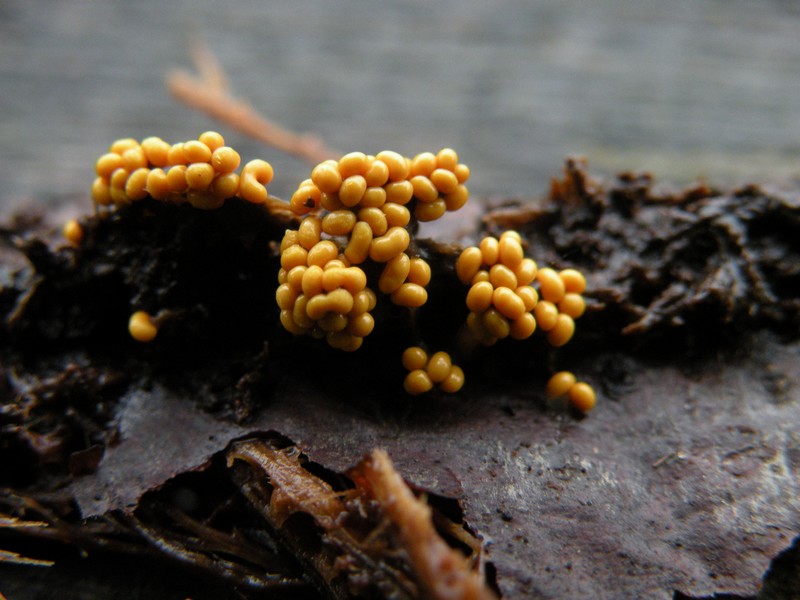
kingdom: Protozoa
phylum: Mycetozoa
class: Myxomycetes
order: Trichiales
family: Trichiaceae
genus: Trichia
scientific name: Trichia varia
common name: foranderlig hårbold
